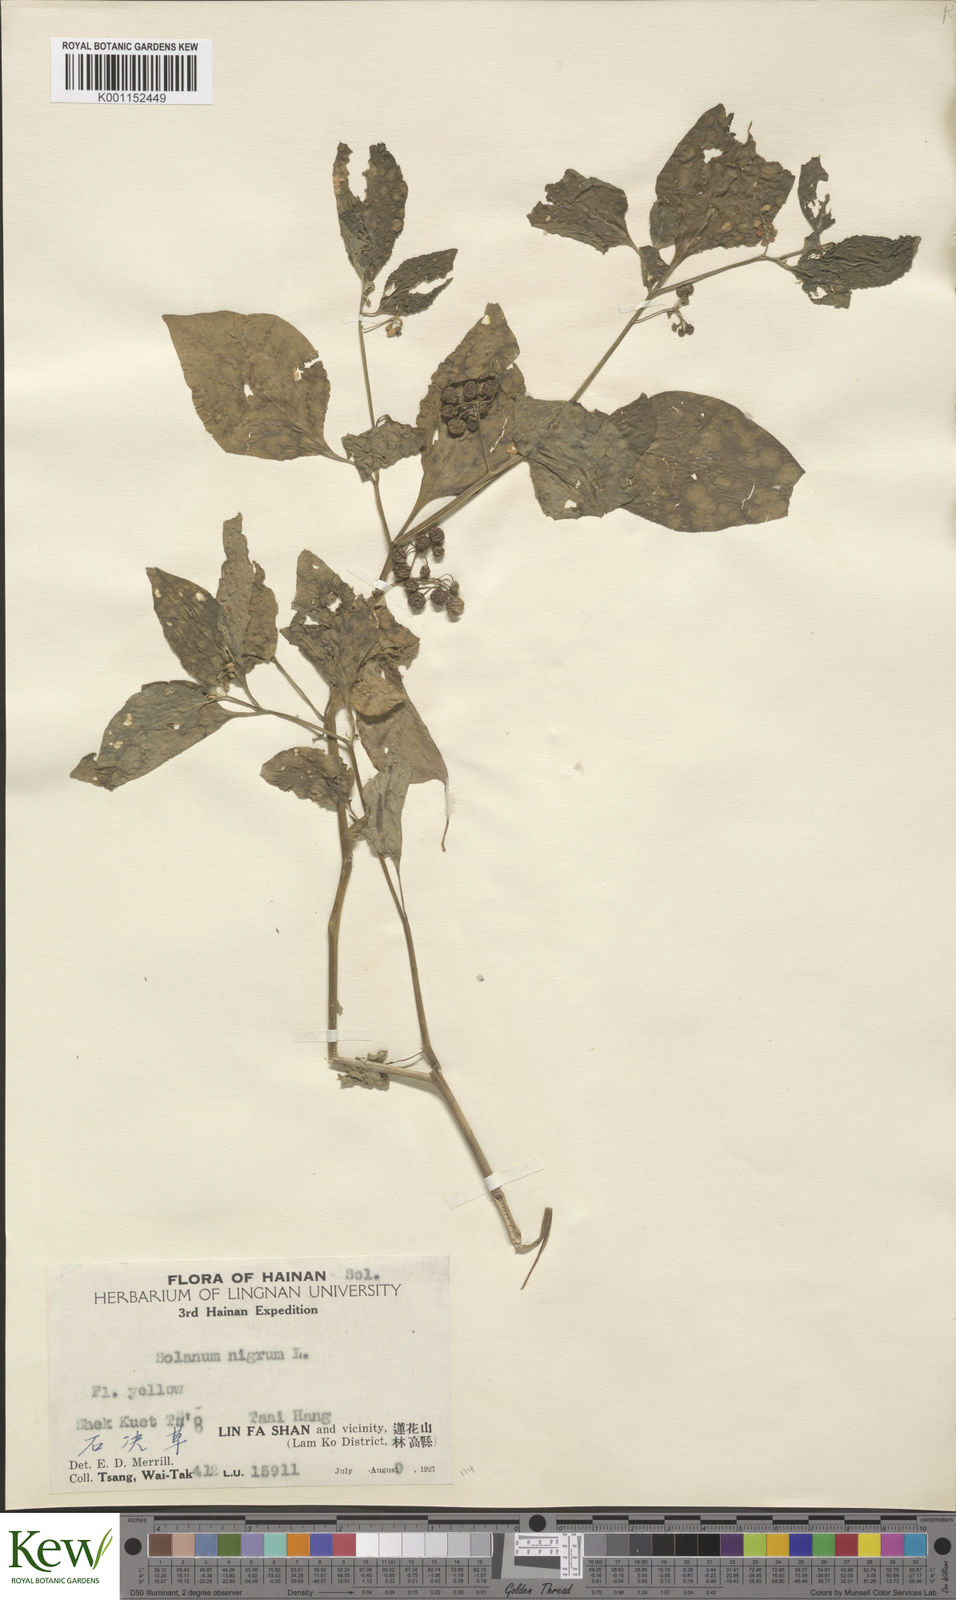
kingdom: Plantae
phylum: Tracheophyta
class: Magnoliopsida
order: Solanales
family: Solanaceae
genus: Solanum
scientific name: Solanum americanum
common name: American black nightshade
